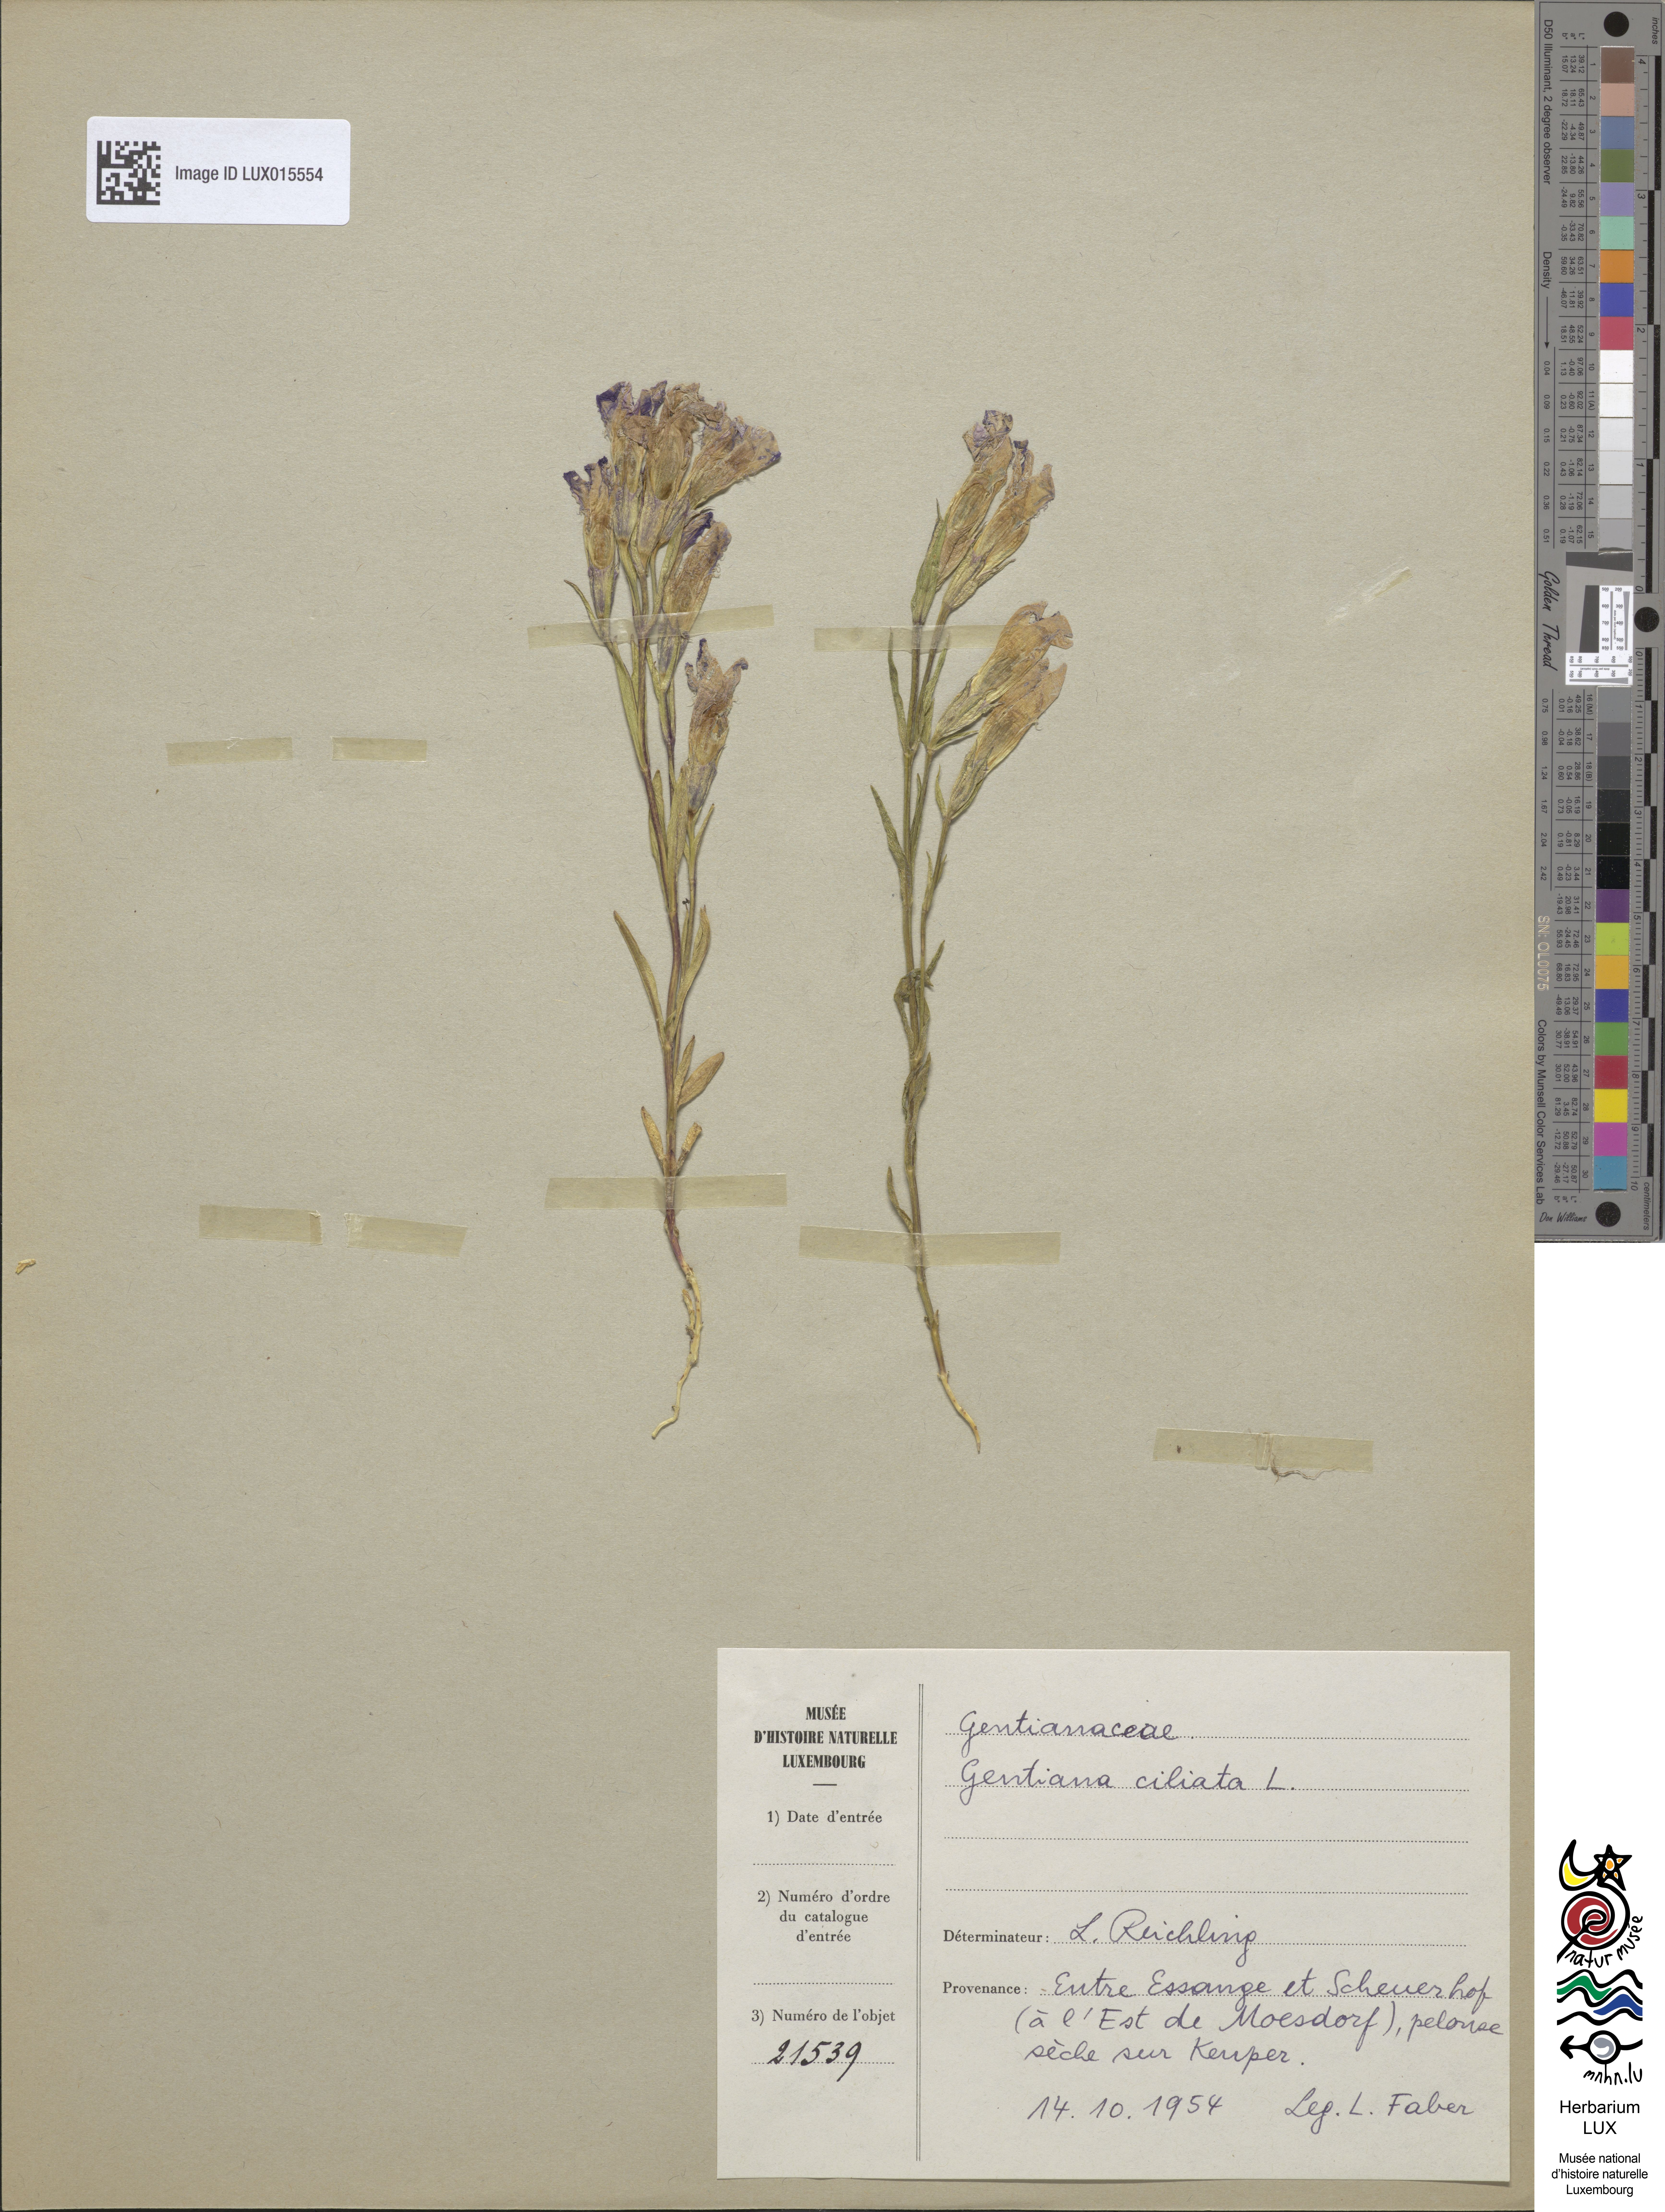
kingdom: Plantae
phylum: Tracheophyta
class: Magnoliopsida
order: Gentianales
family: Gentianaceae
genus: Gentianopsis
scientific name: Gentianopsis ciliata
